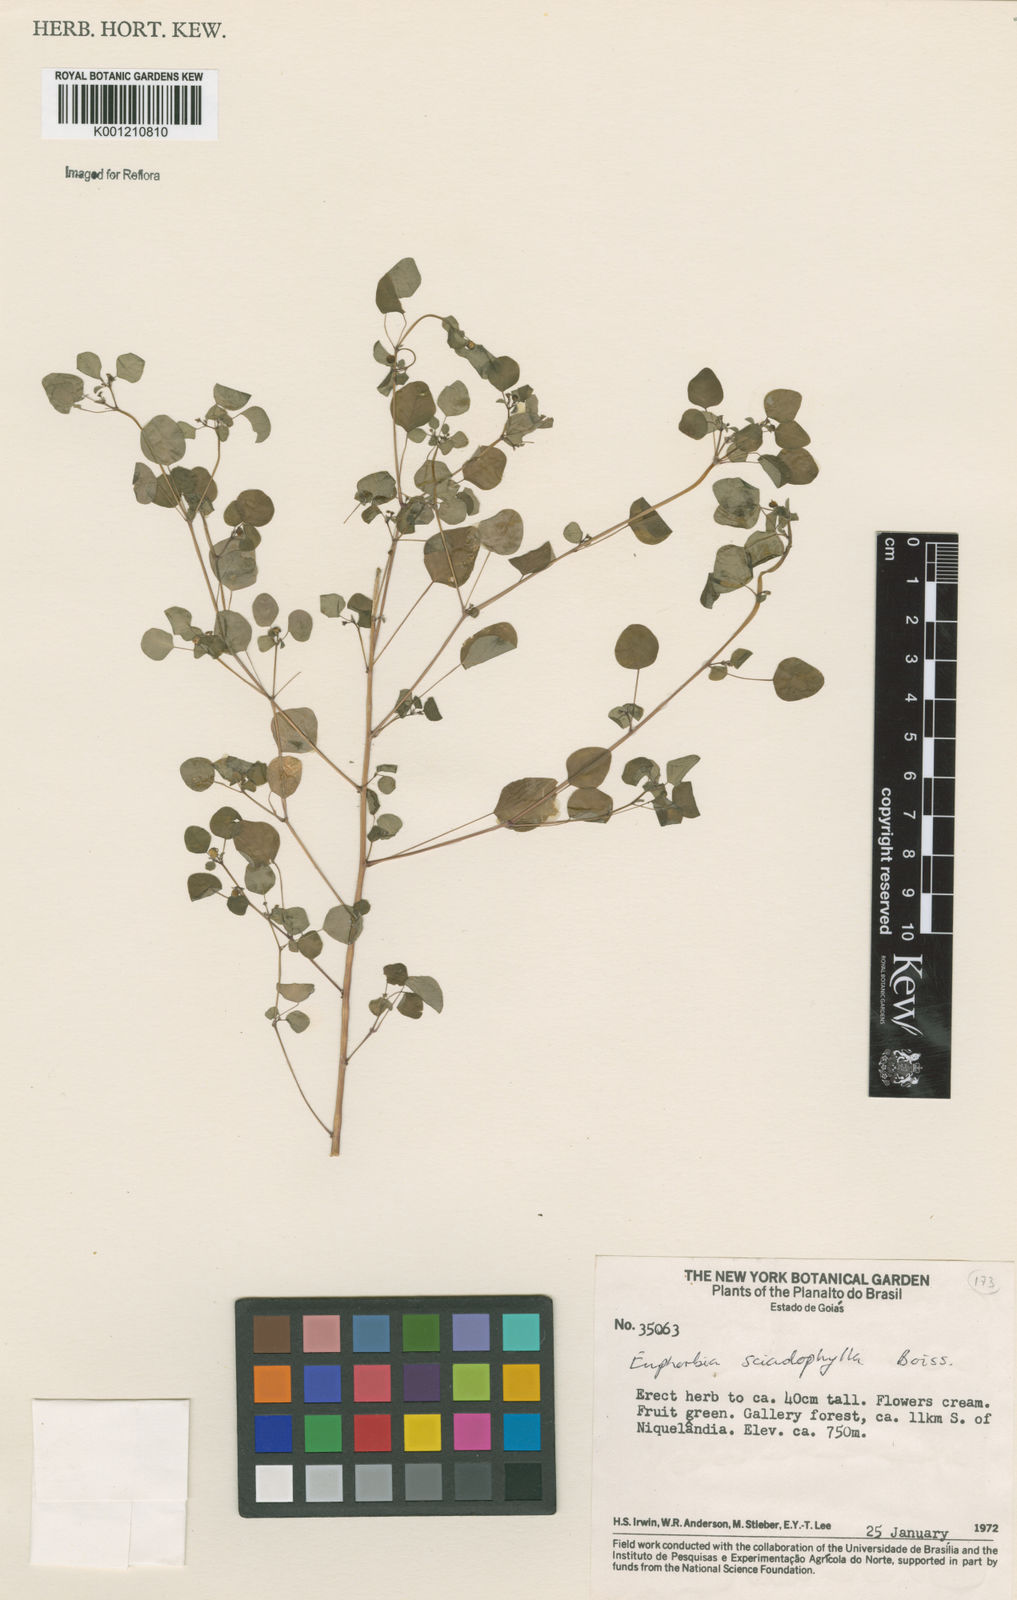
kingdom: Plantae
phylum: Tracheophyta
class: Magnoliopsida
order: Malpighiales
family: Euphorbiaceae
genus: Euphorbia
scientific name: Euphorbia sciadophila
